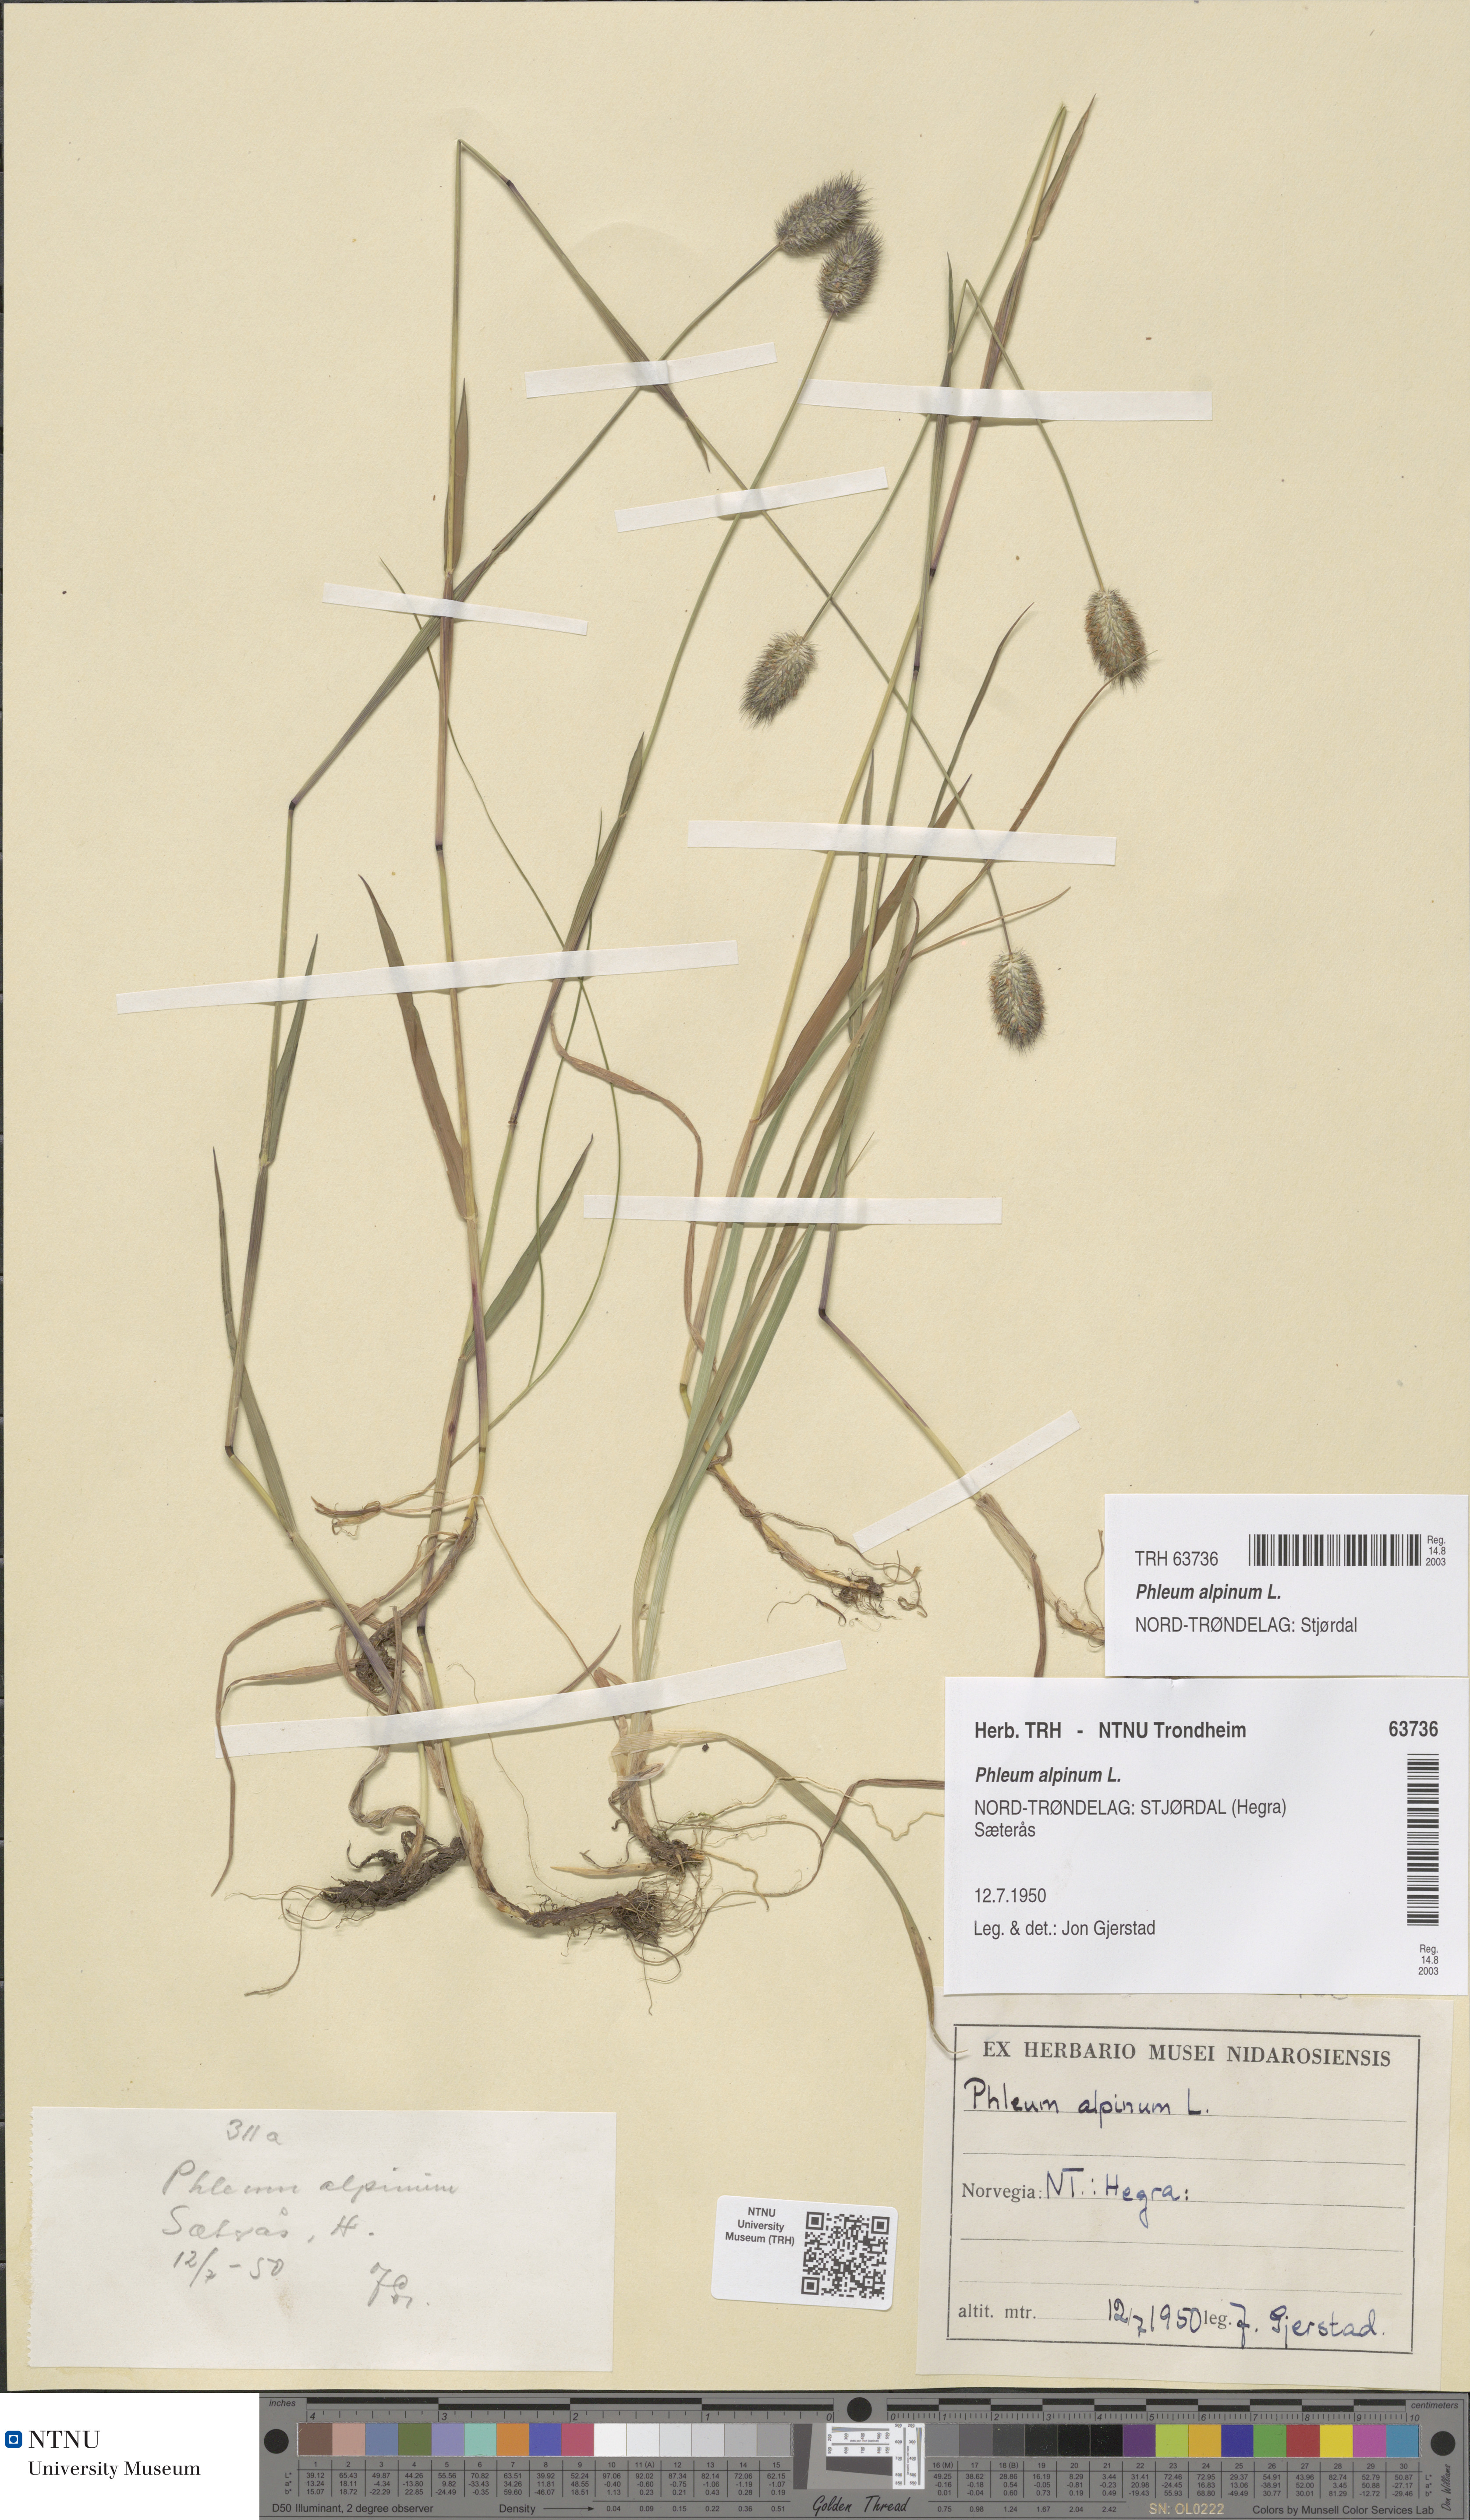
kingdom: Plantae
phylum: Tracheophyta
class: Liliopsida
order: Poales
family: Poaceae
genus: Phleum
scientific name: Phleum alpinum
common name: Alpine cat's-tail
